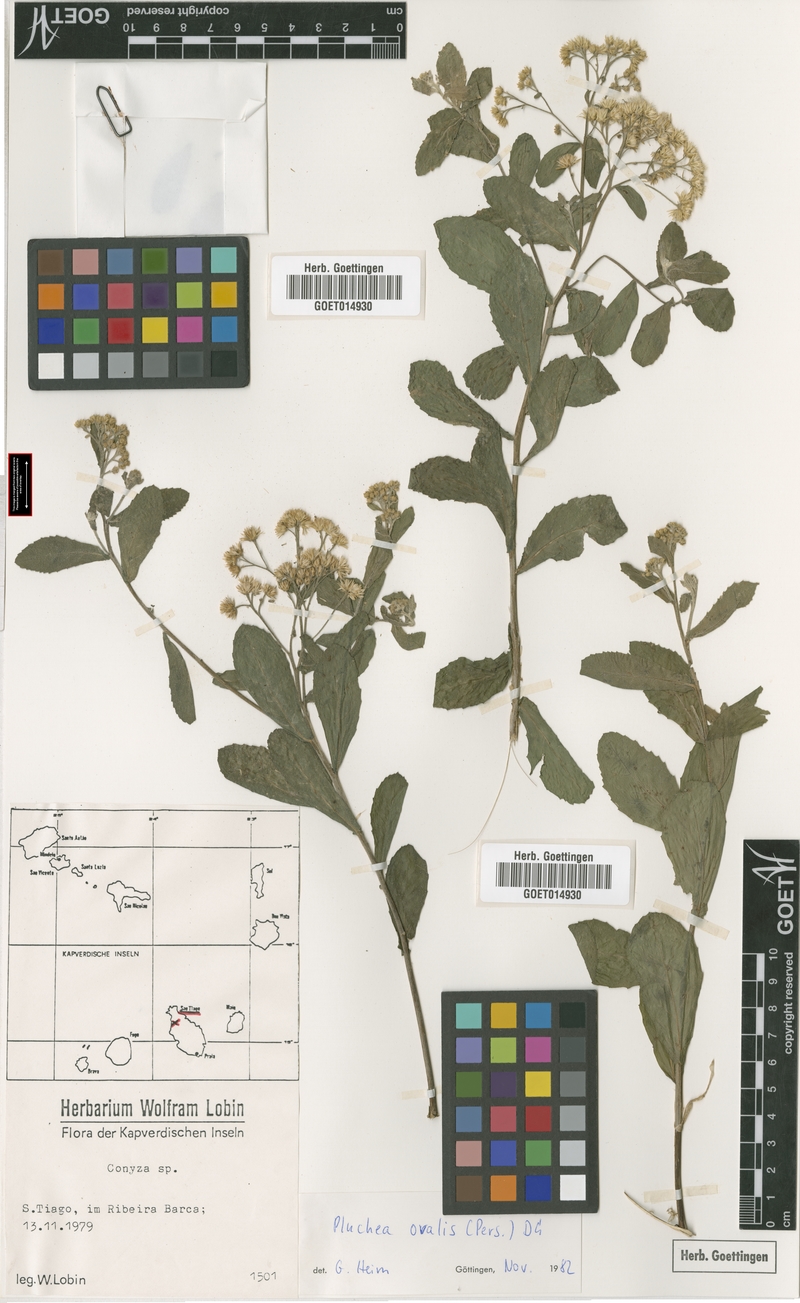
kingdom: Plantae
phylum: Tracheophyta
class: Magnoliopsida
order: Asterales
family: Asteraceae
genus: Pluchea
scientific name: Pluchea ovalis
